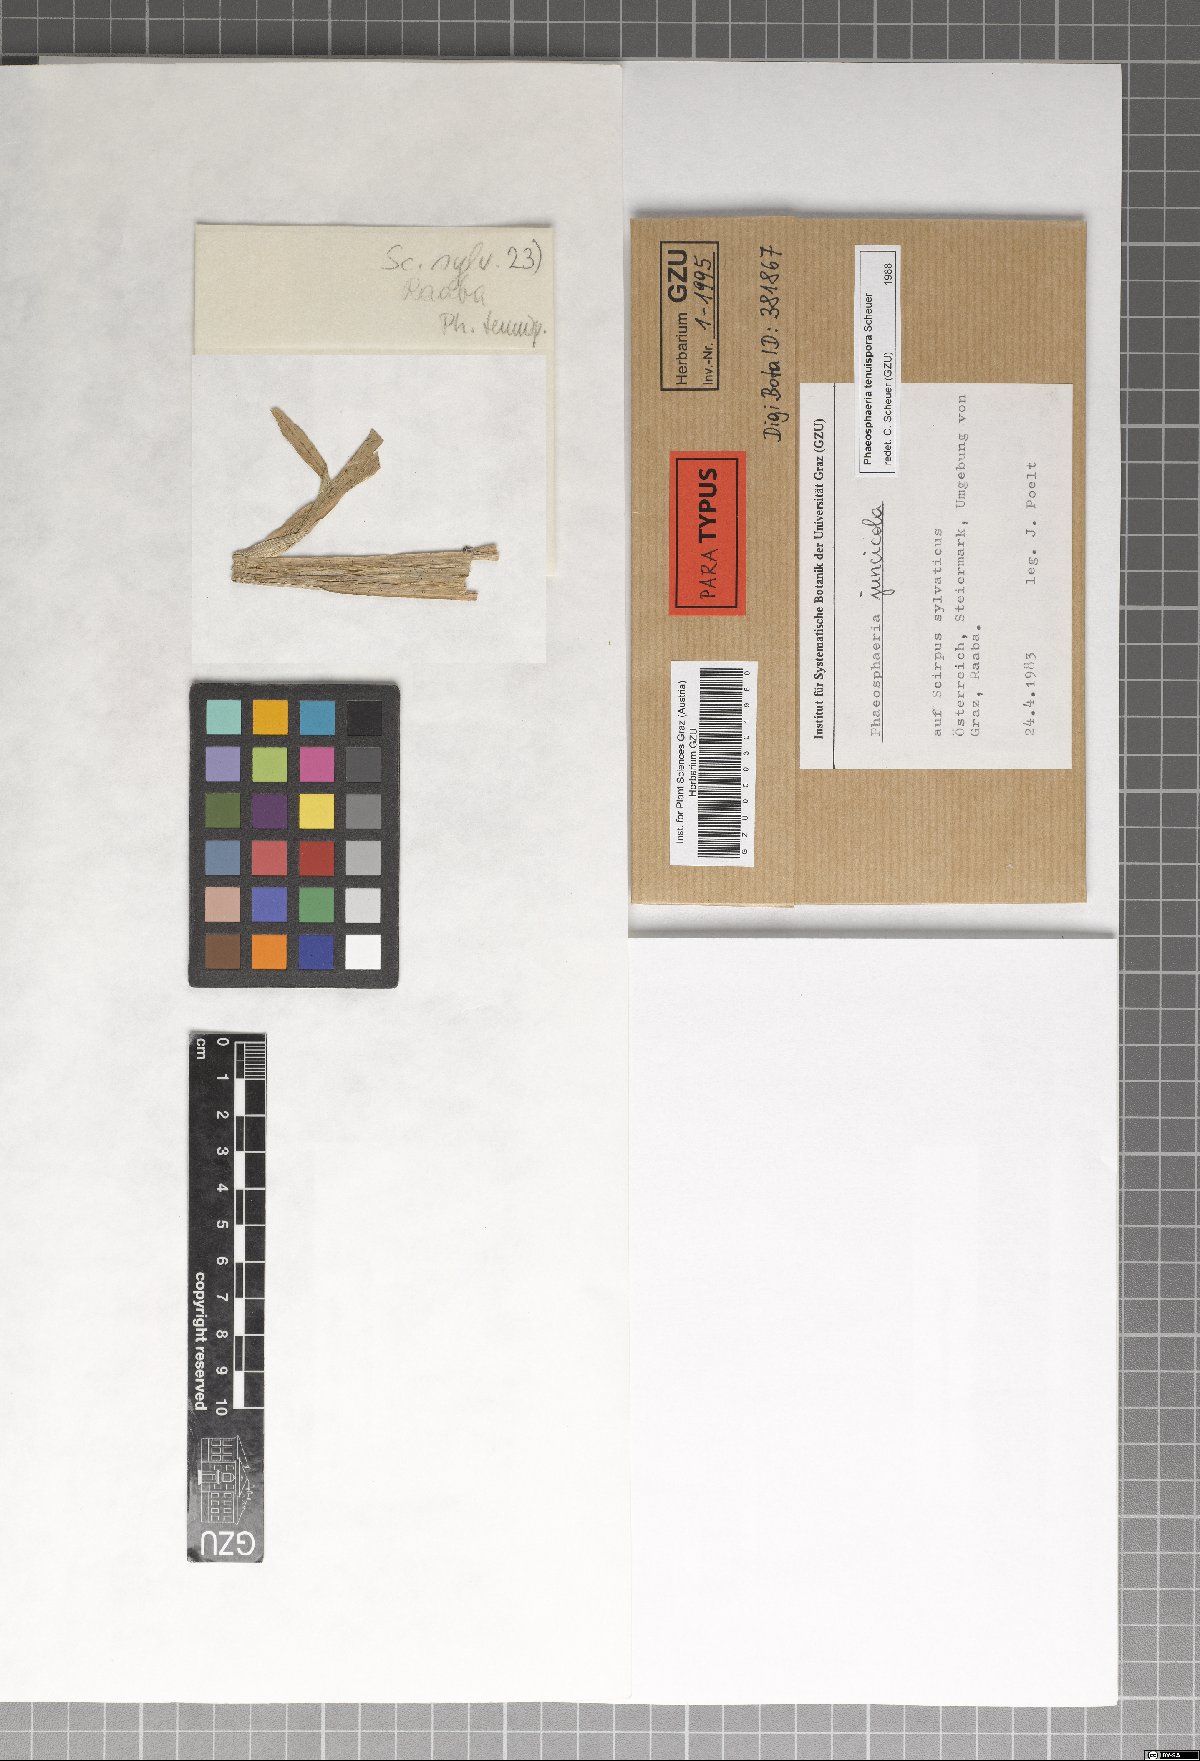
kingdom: Fungi
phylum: Ascomycota
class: Dothideomycetes
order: Pleosporales
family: Phaeosphaeriaceae
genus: Phaeosphaeria
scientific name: Phaeosphaeria tenuispora
